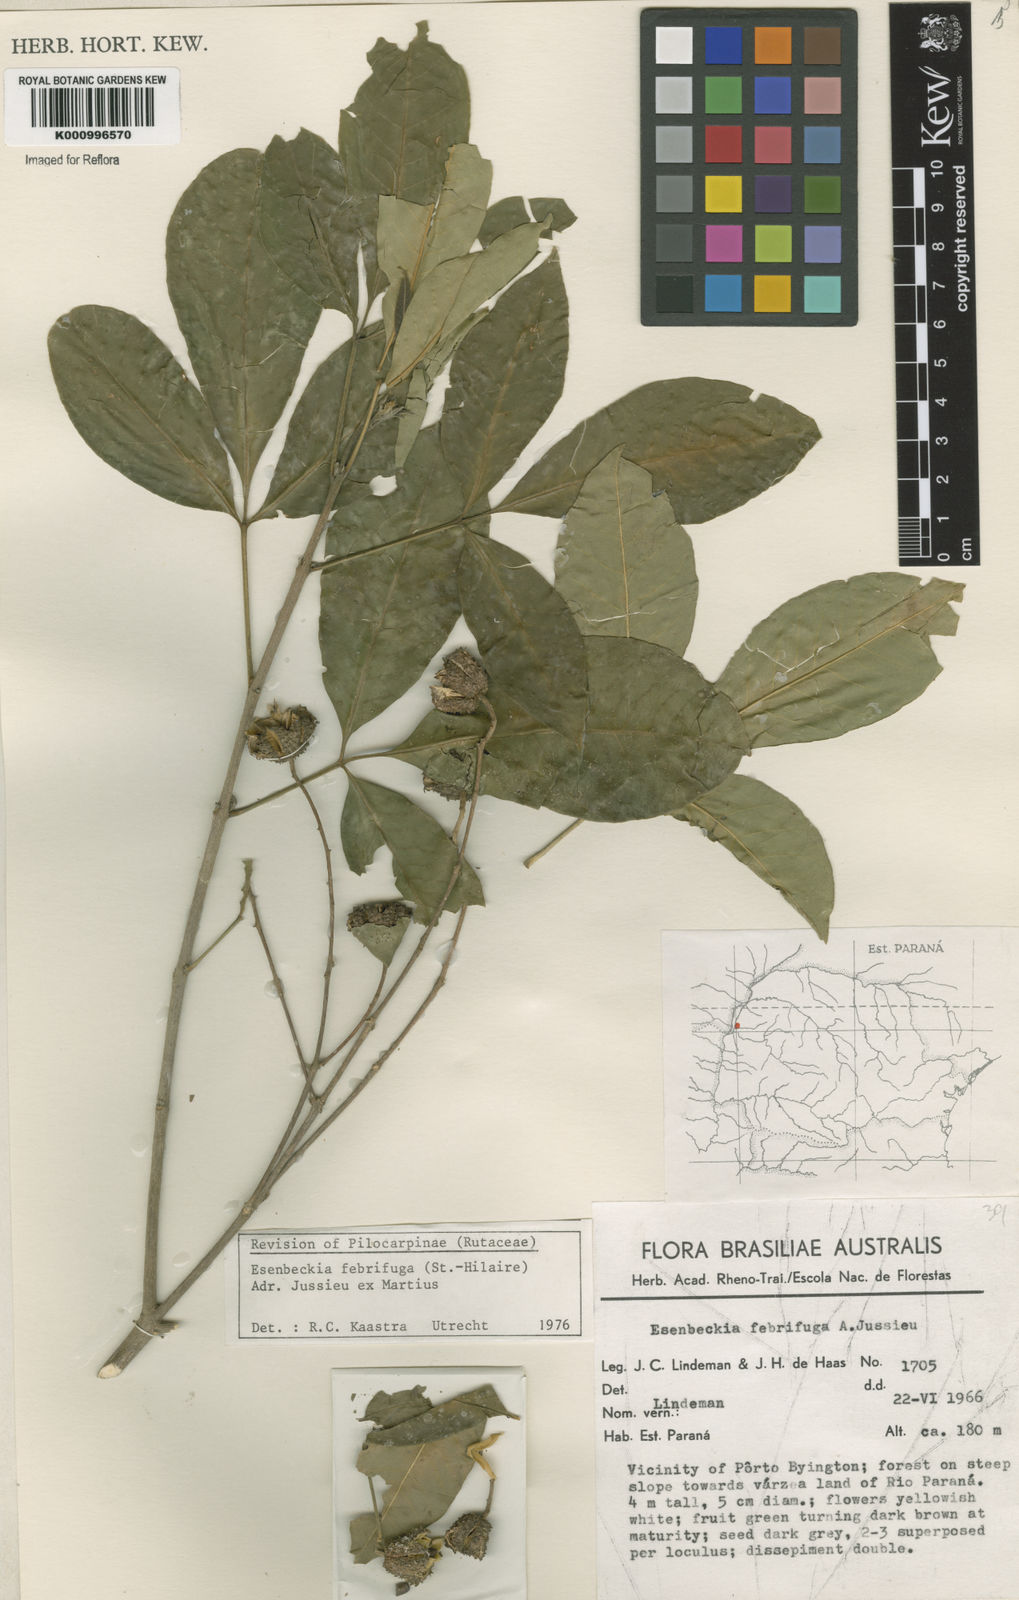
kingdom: Plantae
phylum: Tracheophyta
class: Magnoliopsida
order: Sapindales
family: Rutaceae
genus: Esenbeckia
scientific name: Esenbeckia febrifuga
